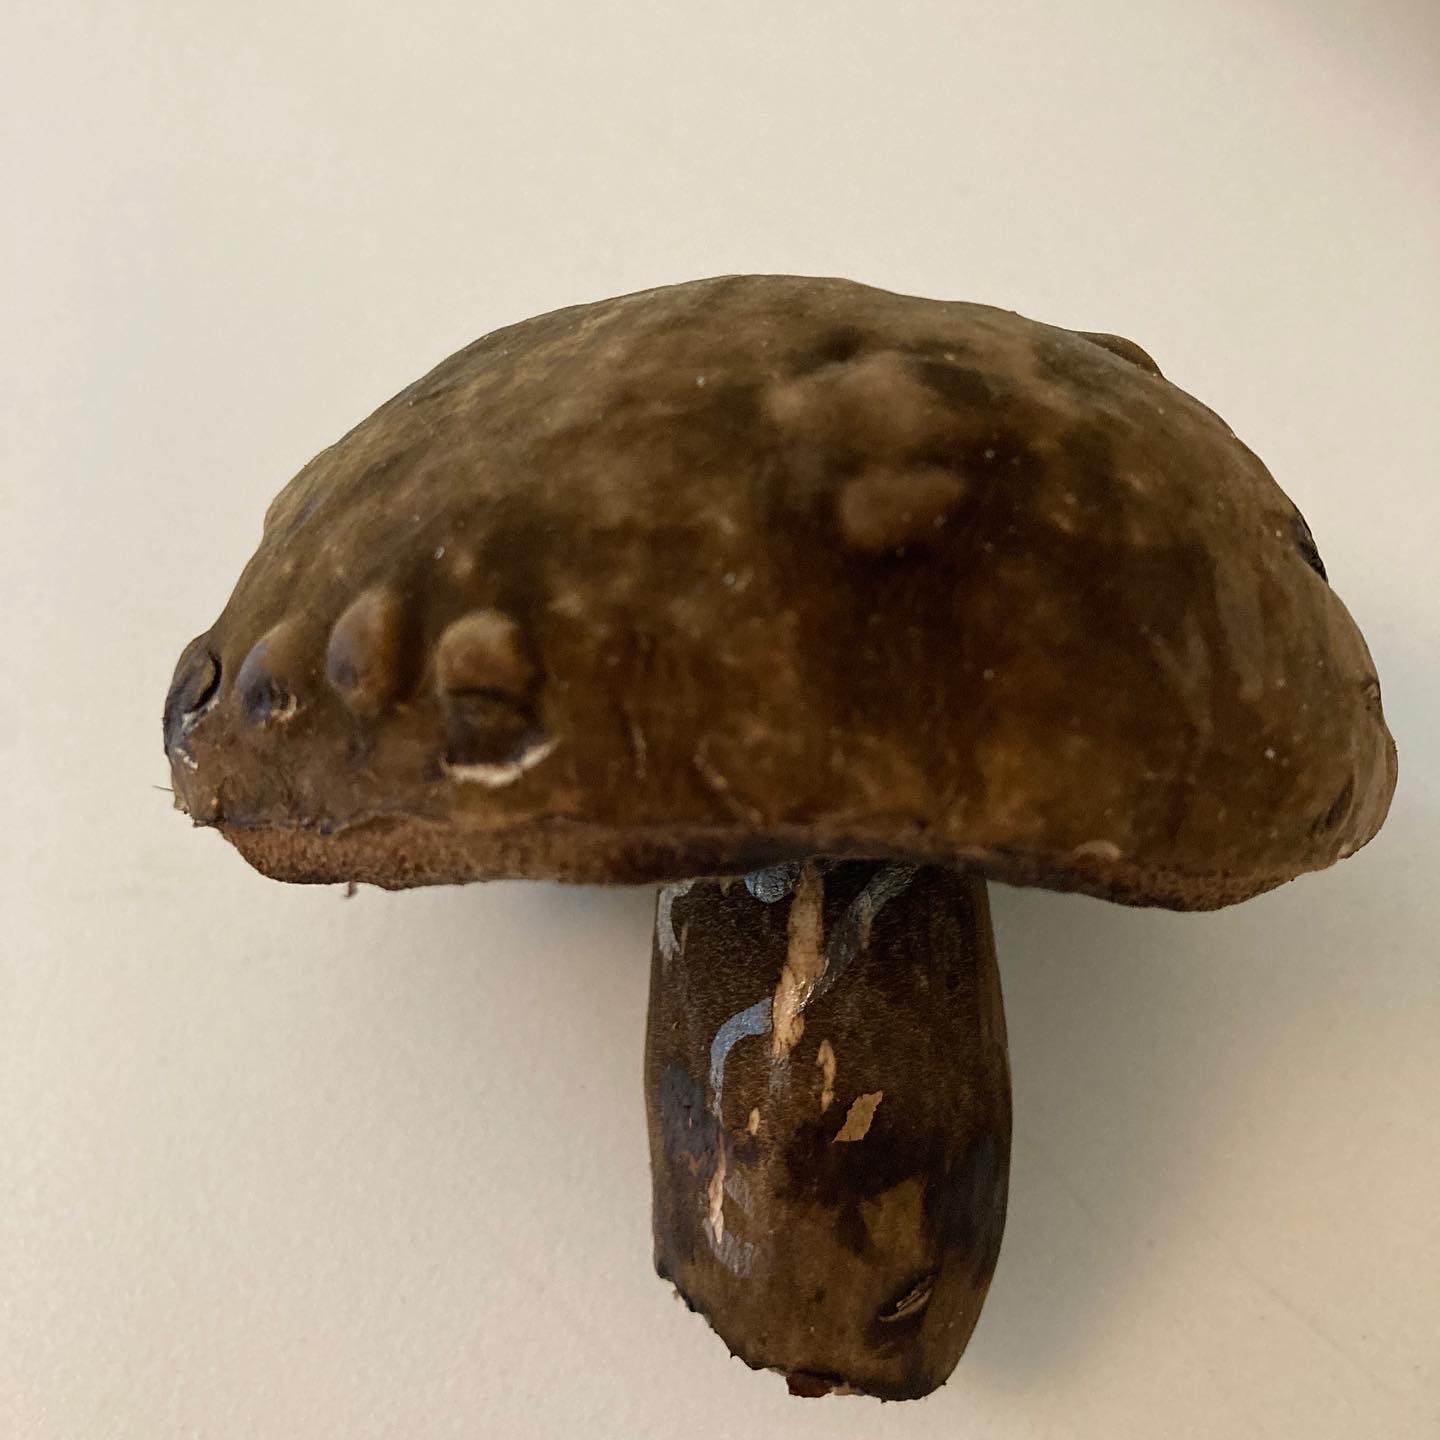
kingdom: Fungi
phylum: Basidiomycota
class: Agaricomycetes
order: Boletales
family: Boletaceae
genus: Porphyrellus
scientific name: Porphyrellus porphyrosporus
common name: sodrørhat
